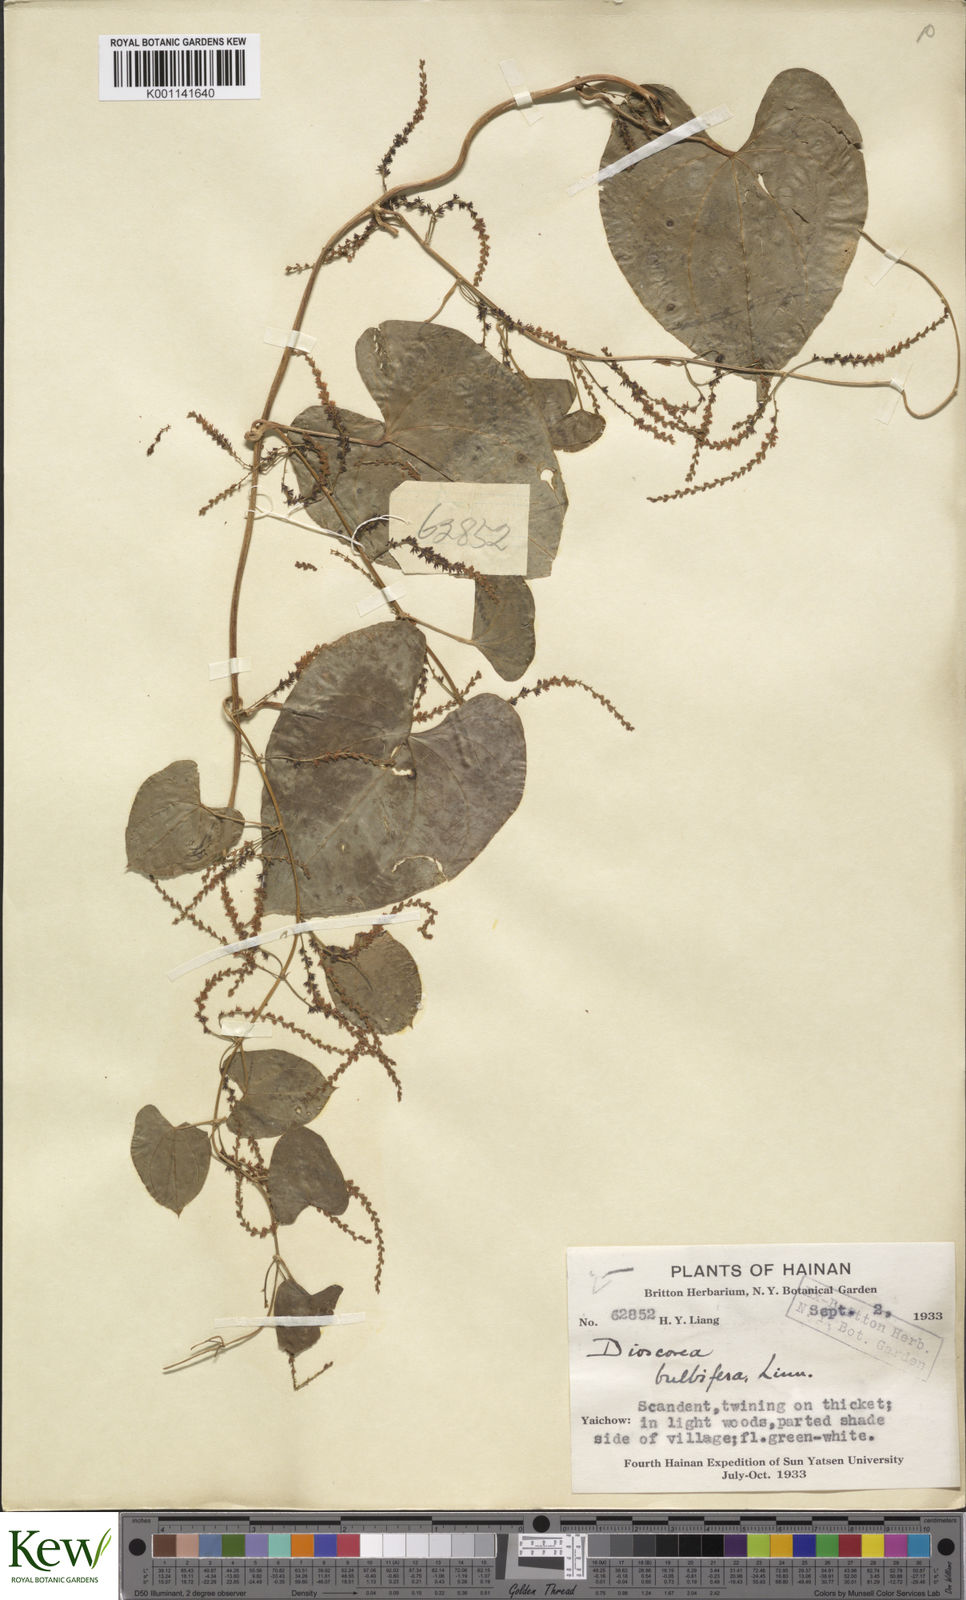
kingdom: Plantae
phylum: Tracheophyta
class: Liliopsida
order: Dioscoreales
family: Dioscoreaceae
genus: Dioscorea
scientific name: Dioscorea bulbifera
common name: Air yam
